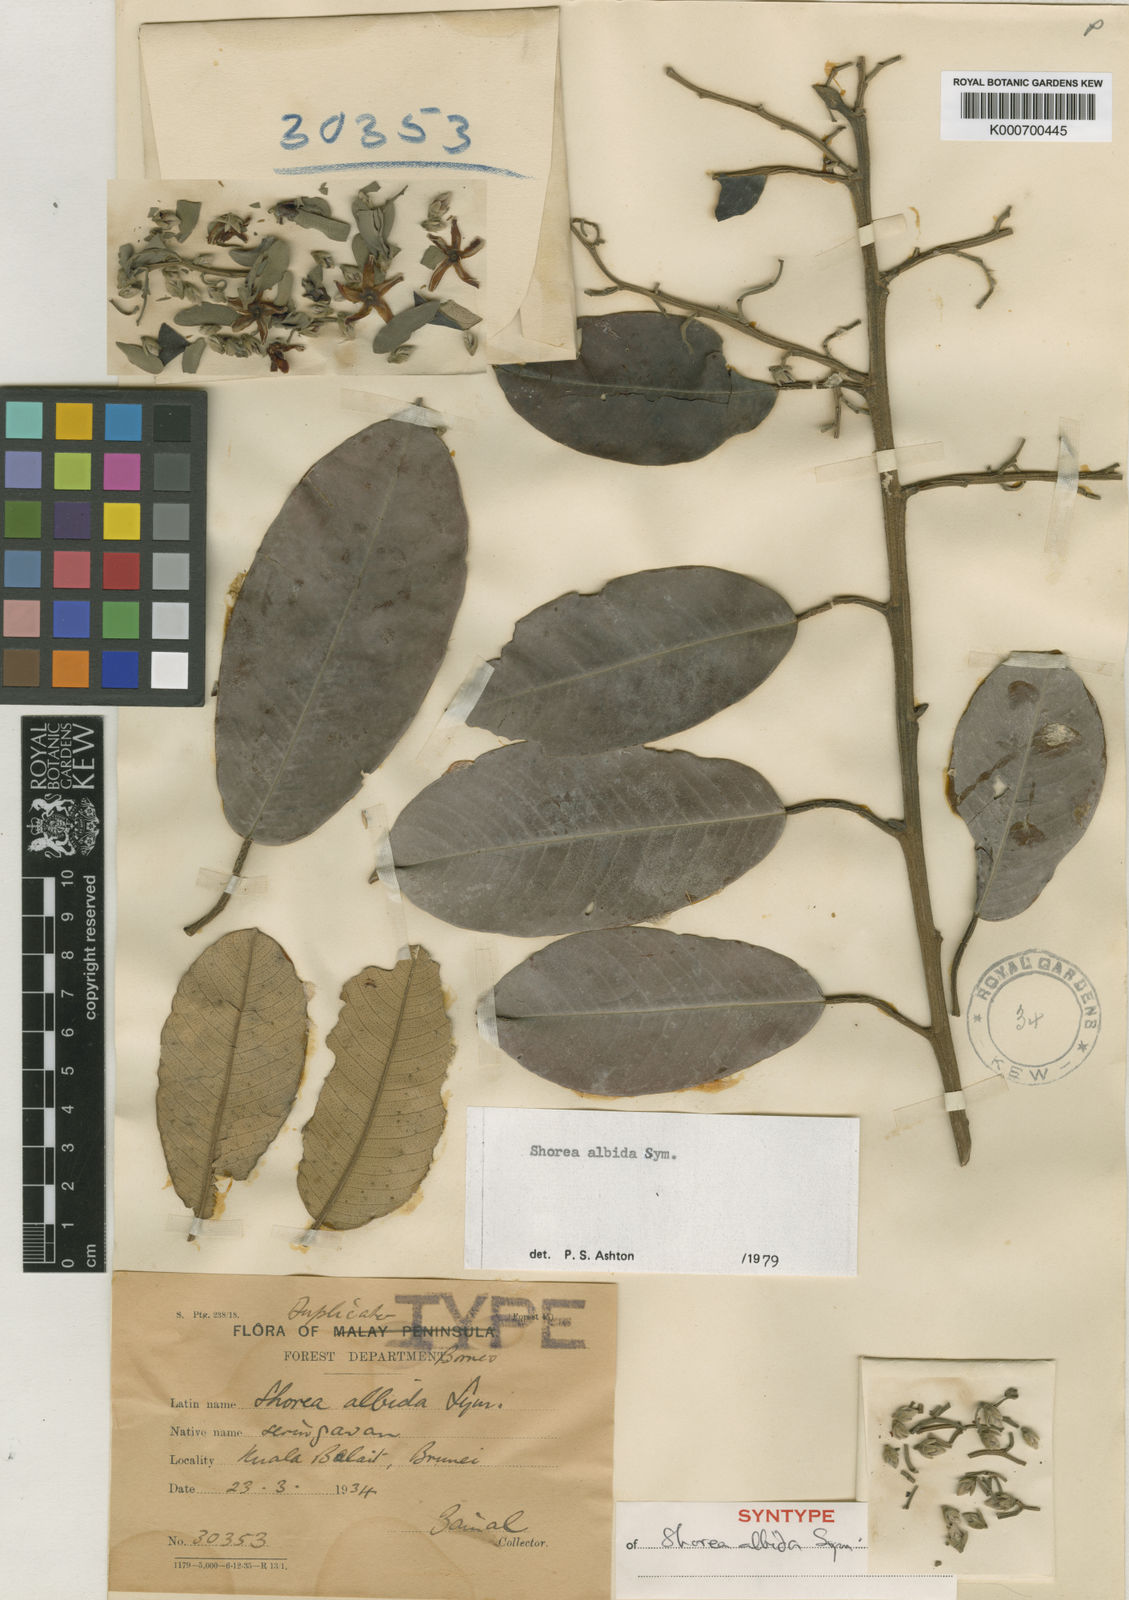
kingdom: Plantae
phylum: Tracheophyta
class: Magnoliopsida
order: Malvales
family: Dipterocarpaceae
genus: Shorea
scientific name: Shorea
